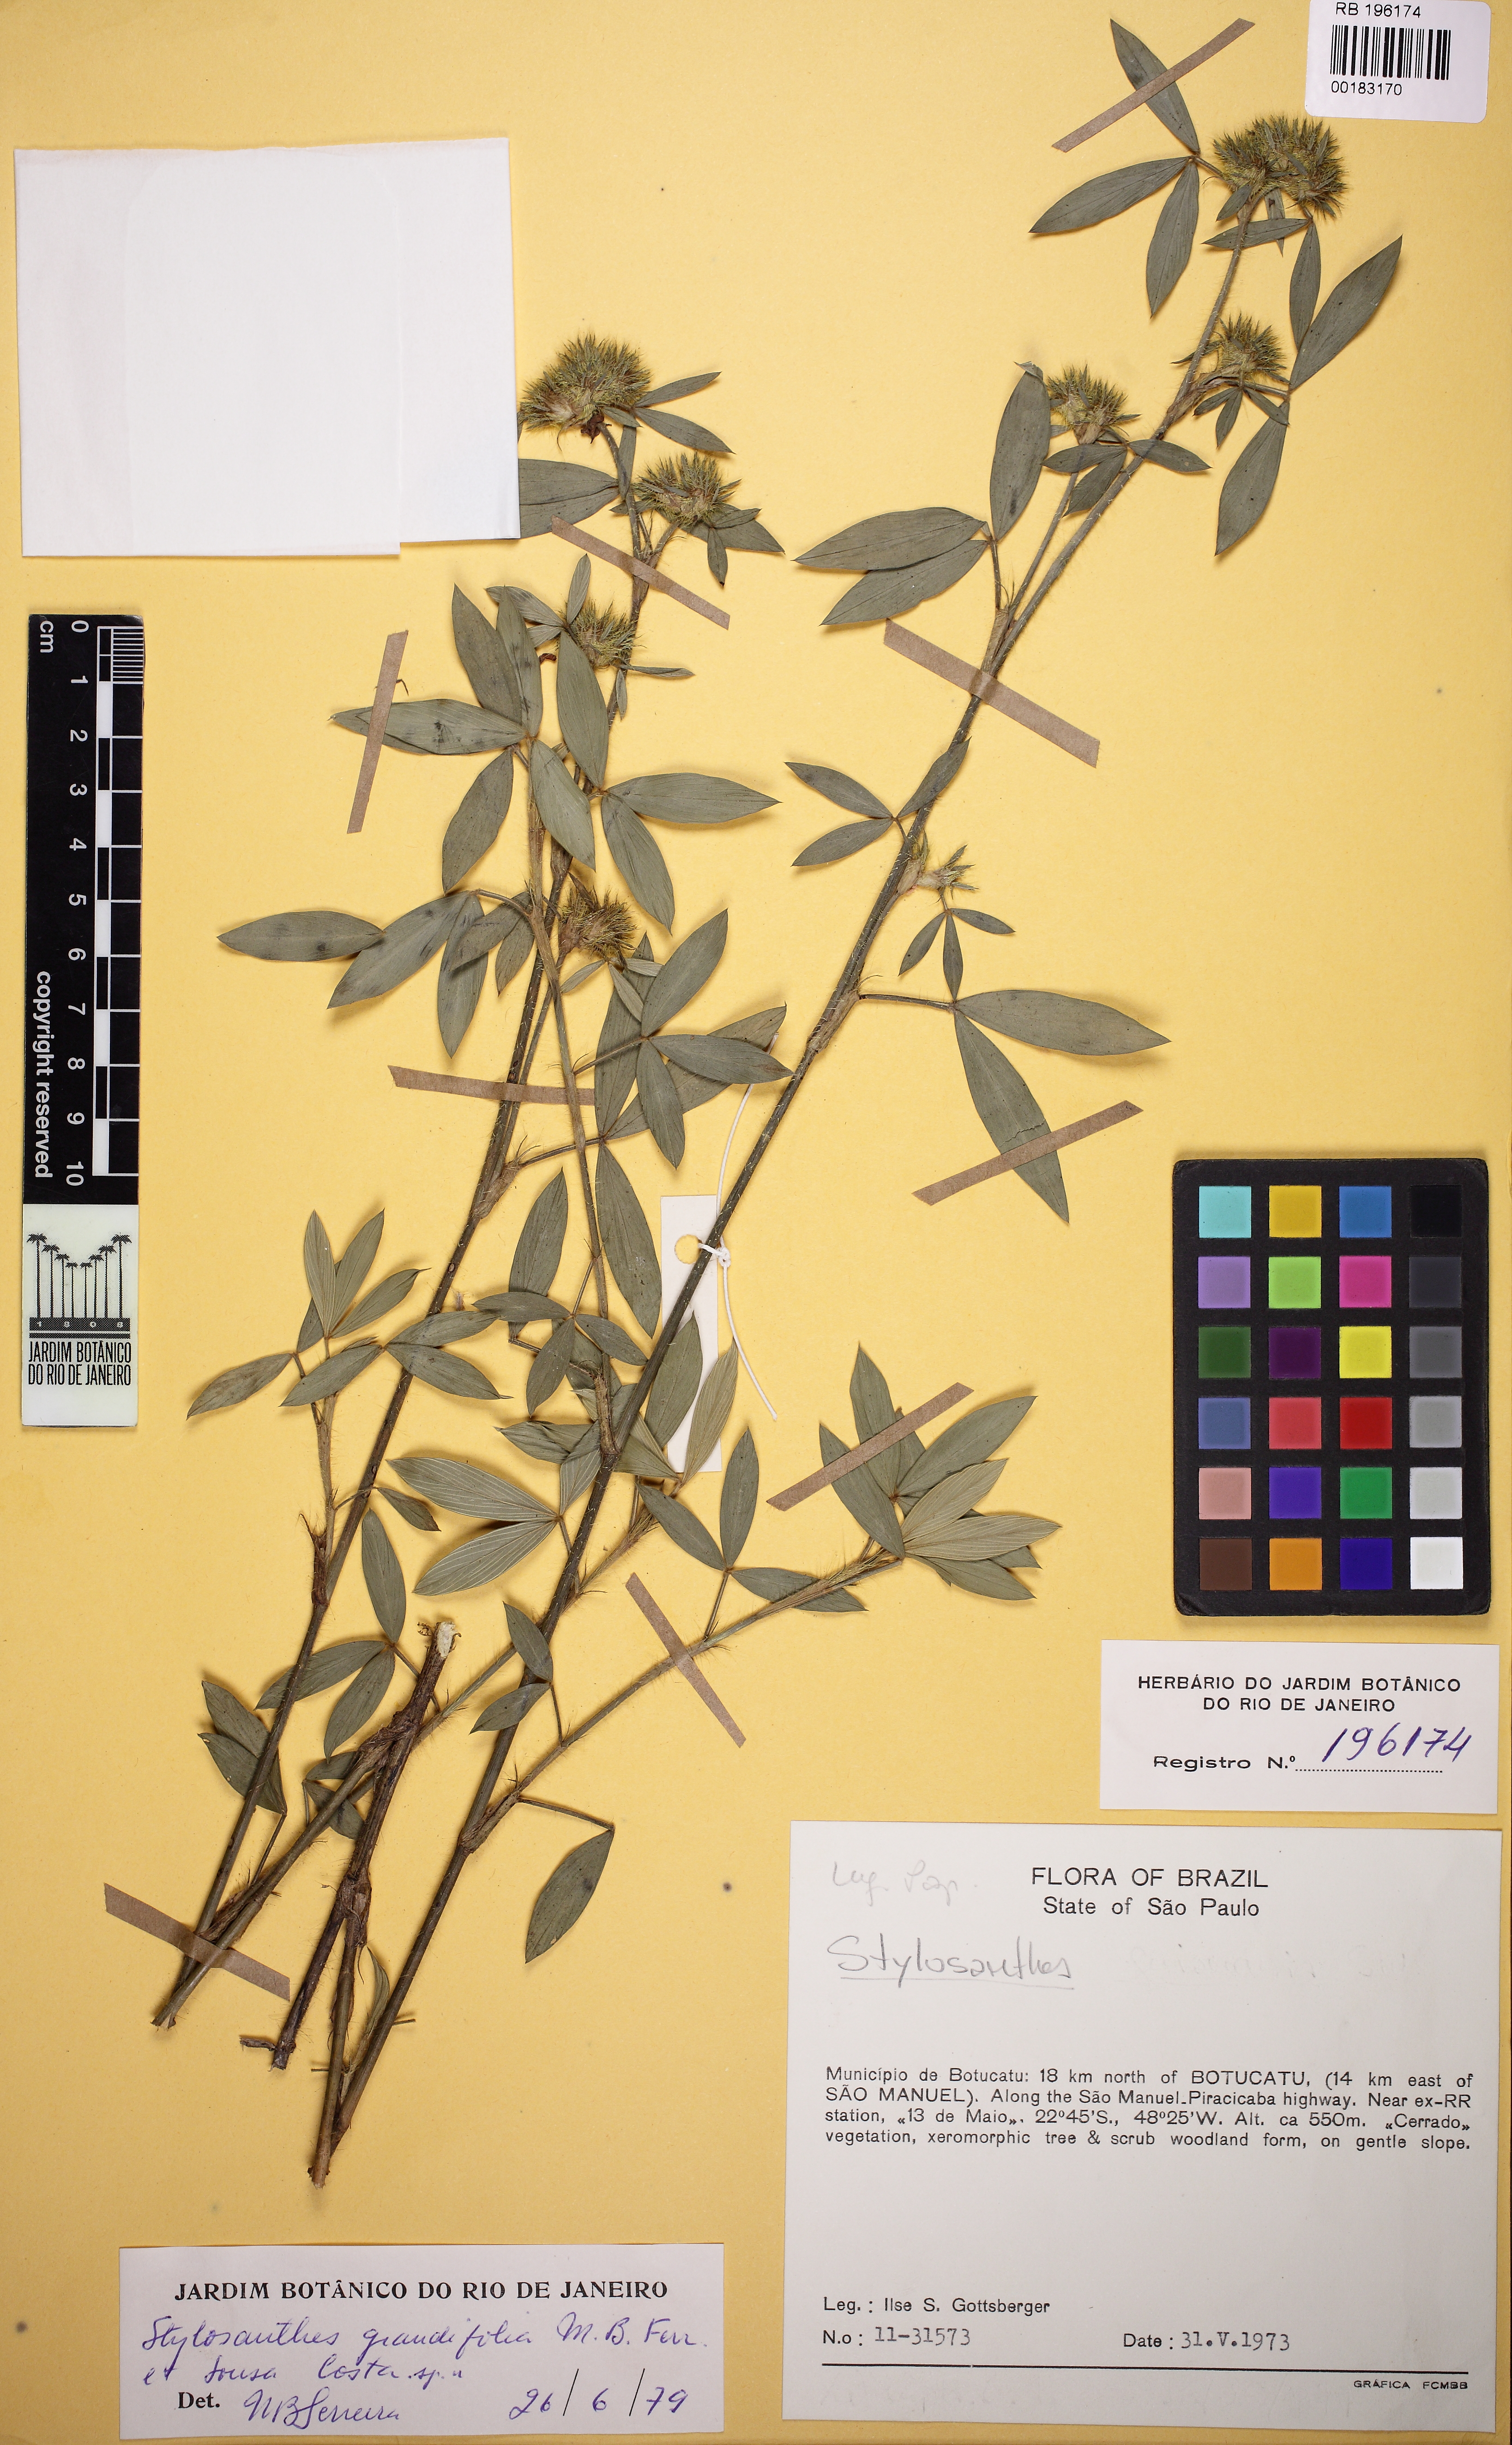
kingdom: Plantae
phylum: Tracheophyta
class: Magnoliopsida
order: Fabales
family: Fabaceae
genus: Stylosanthes
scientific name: Stylosanthes guianensis
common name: Pencil flower
